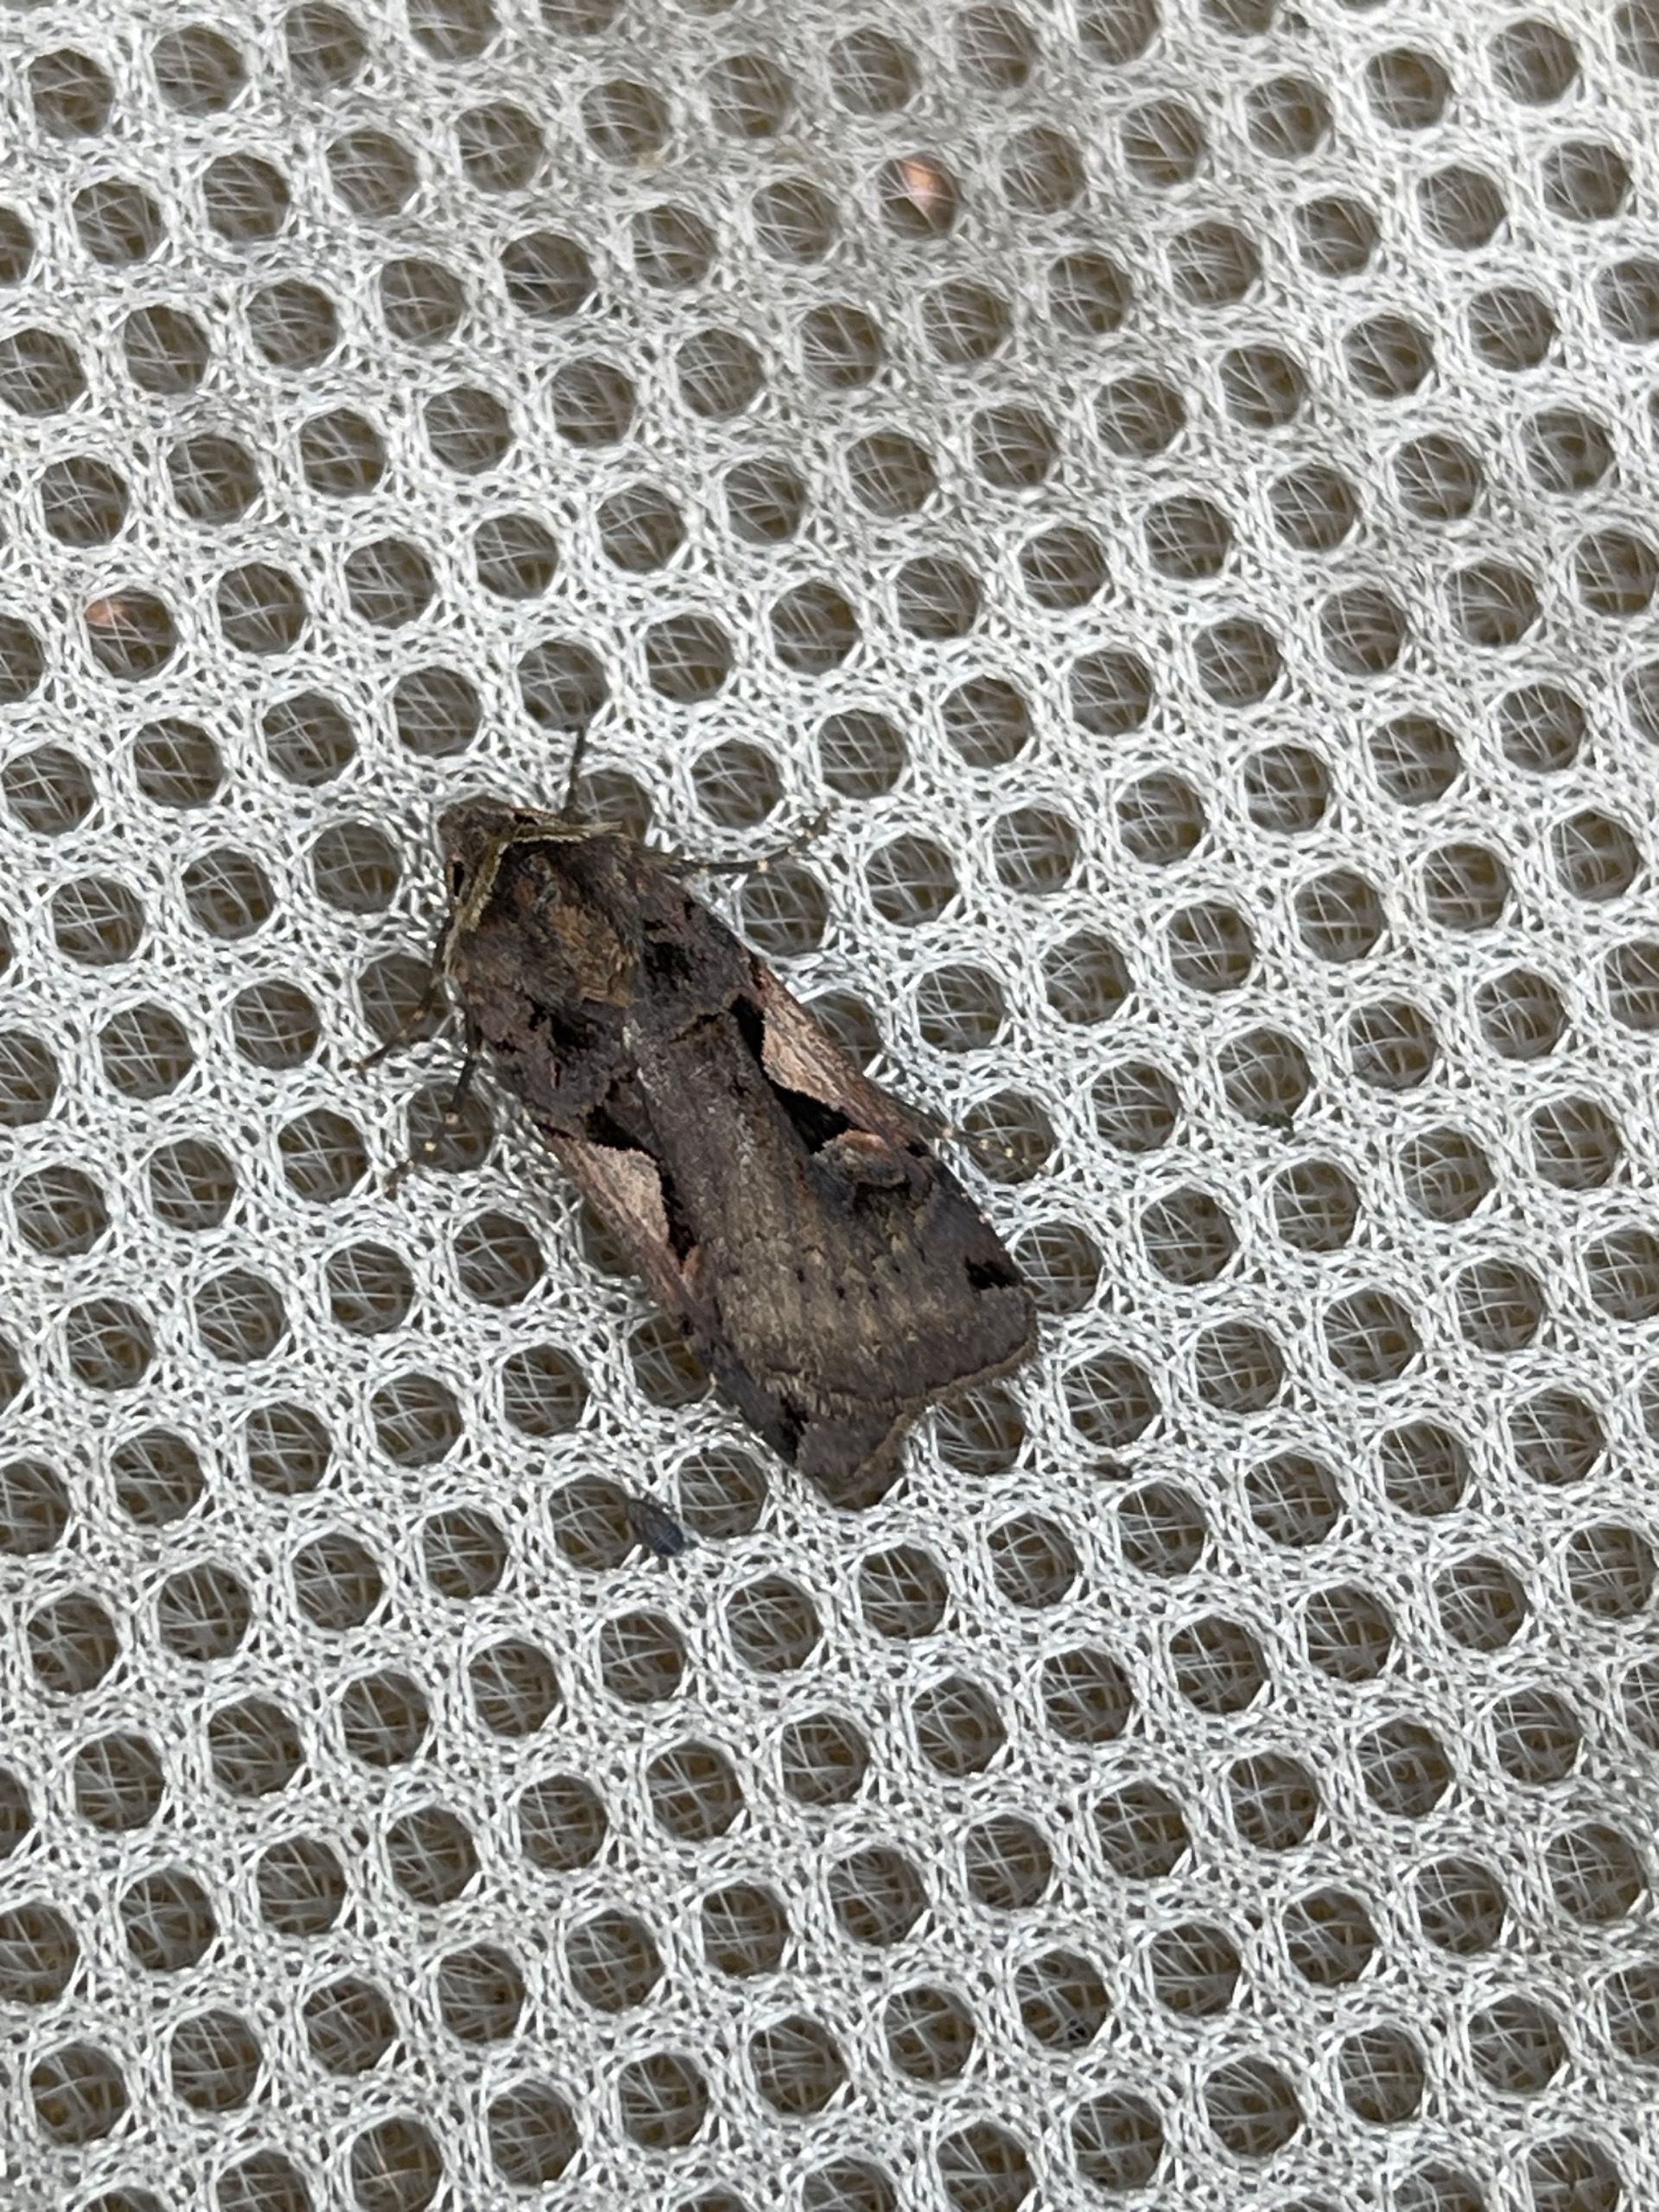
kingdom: Animalia
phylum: Arthropoda
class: Insecta
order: Lepidoptera
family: Noctuidae
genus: Xestia
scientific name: Xestia c-nigrum
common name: Det sorte c
